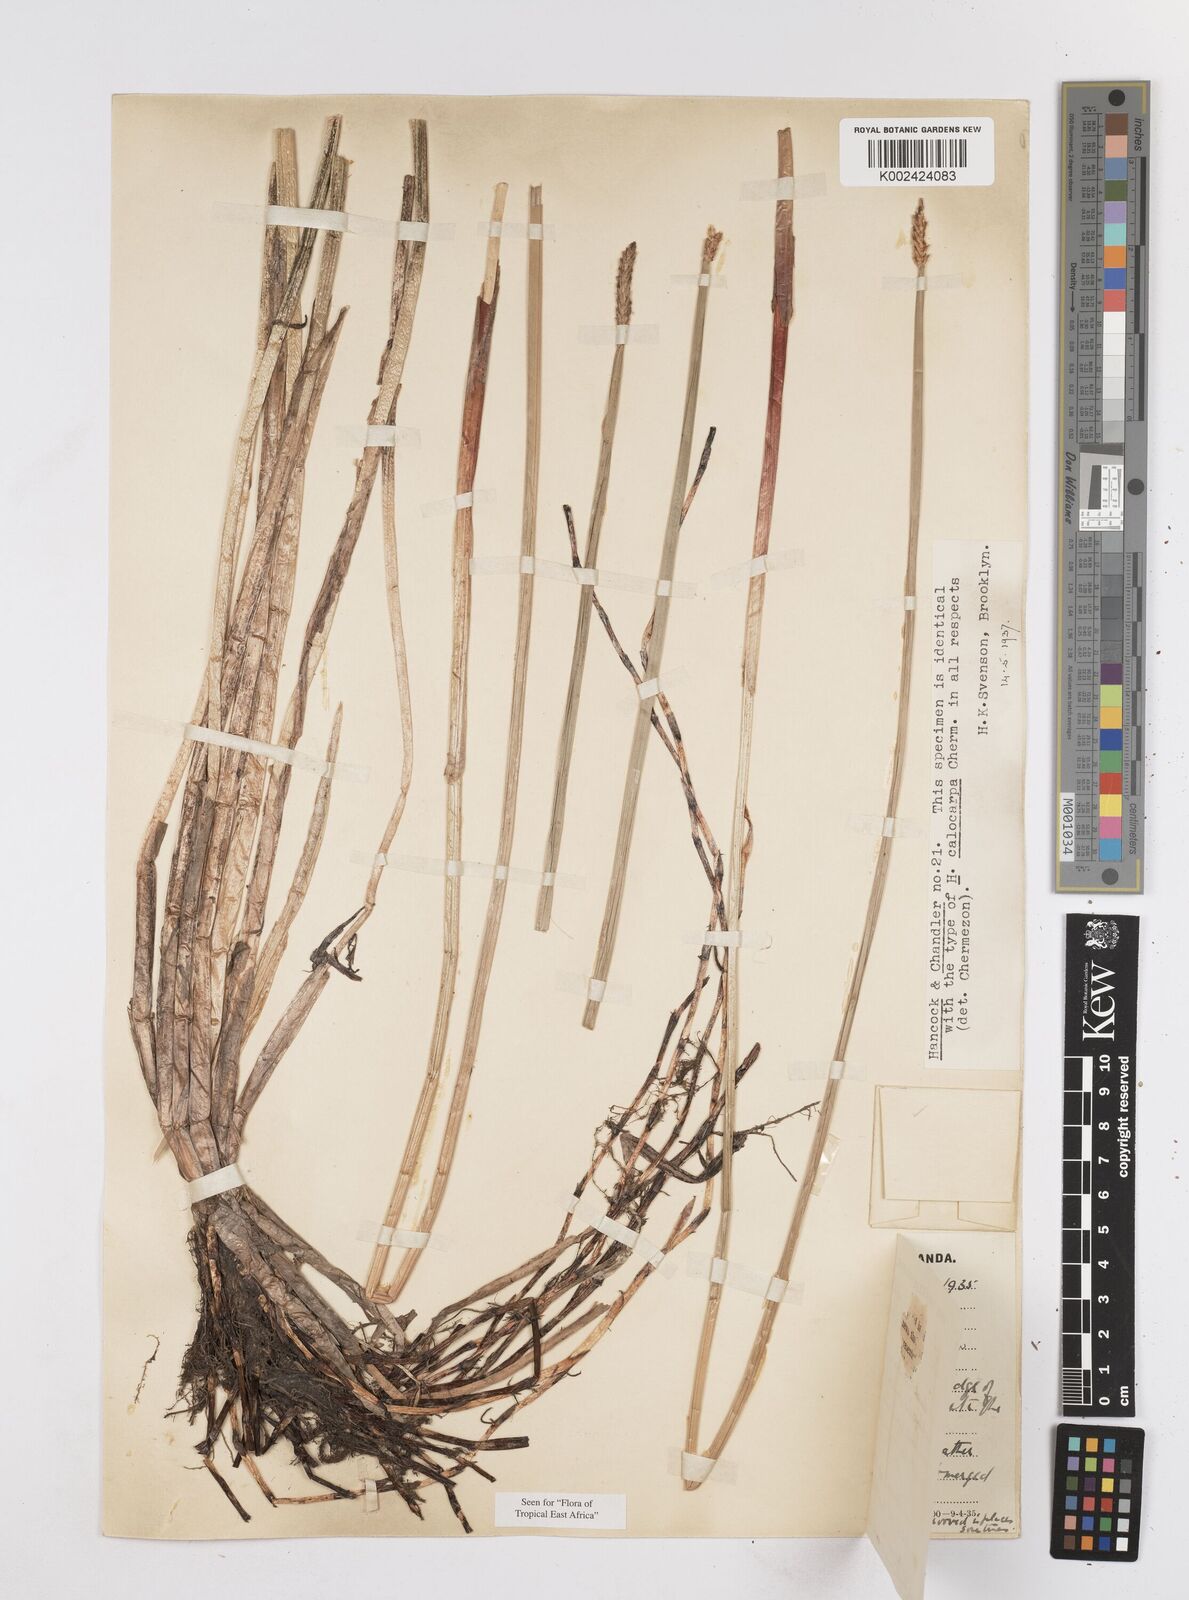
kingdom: Plantae
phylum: Tracheophyta
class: Liliopsida
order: Poales
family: Cyperaceae
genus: Eleocharis
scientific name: Eleocharis variegata
